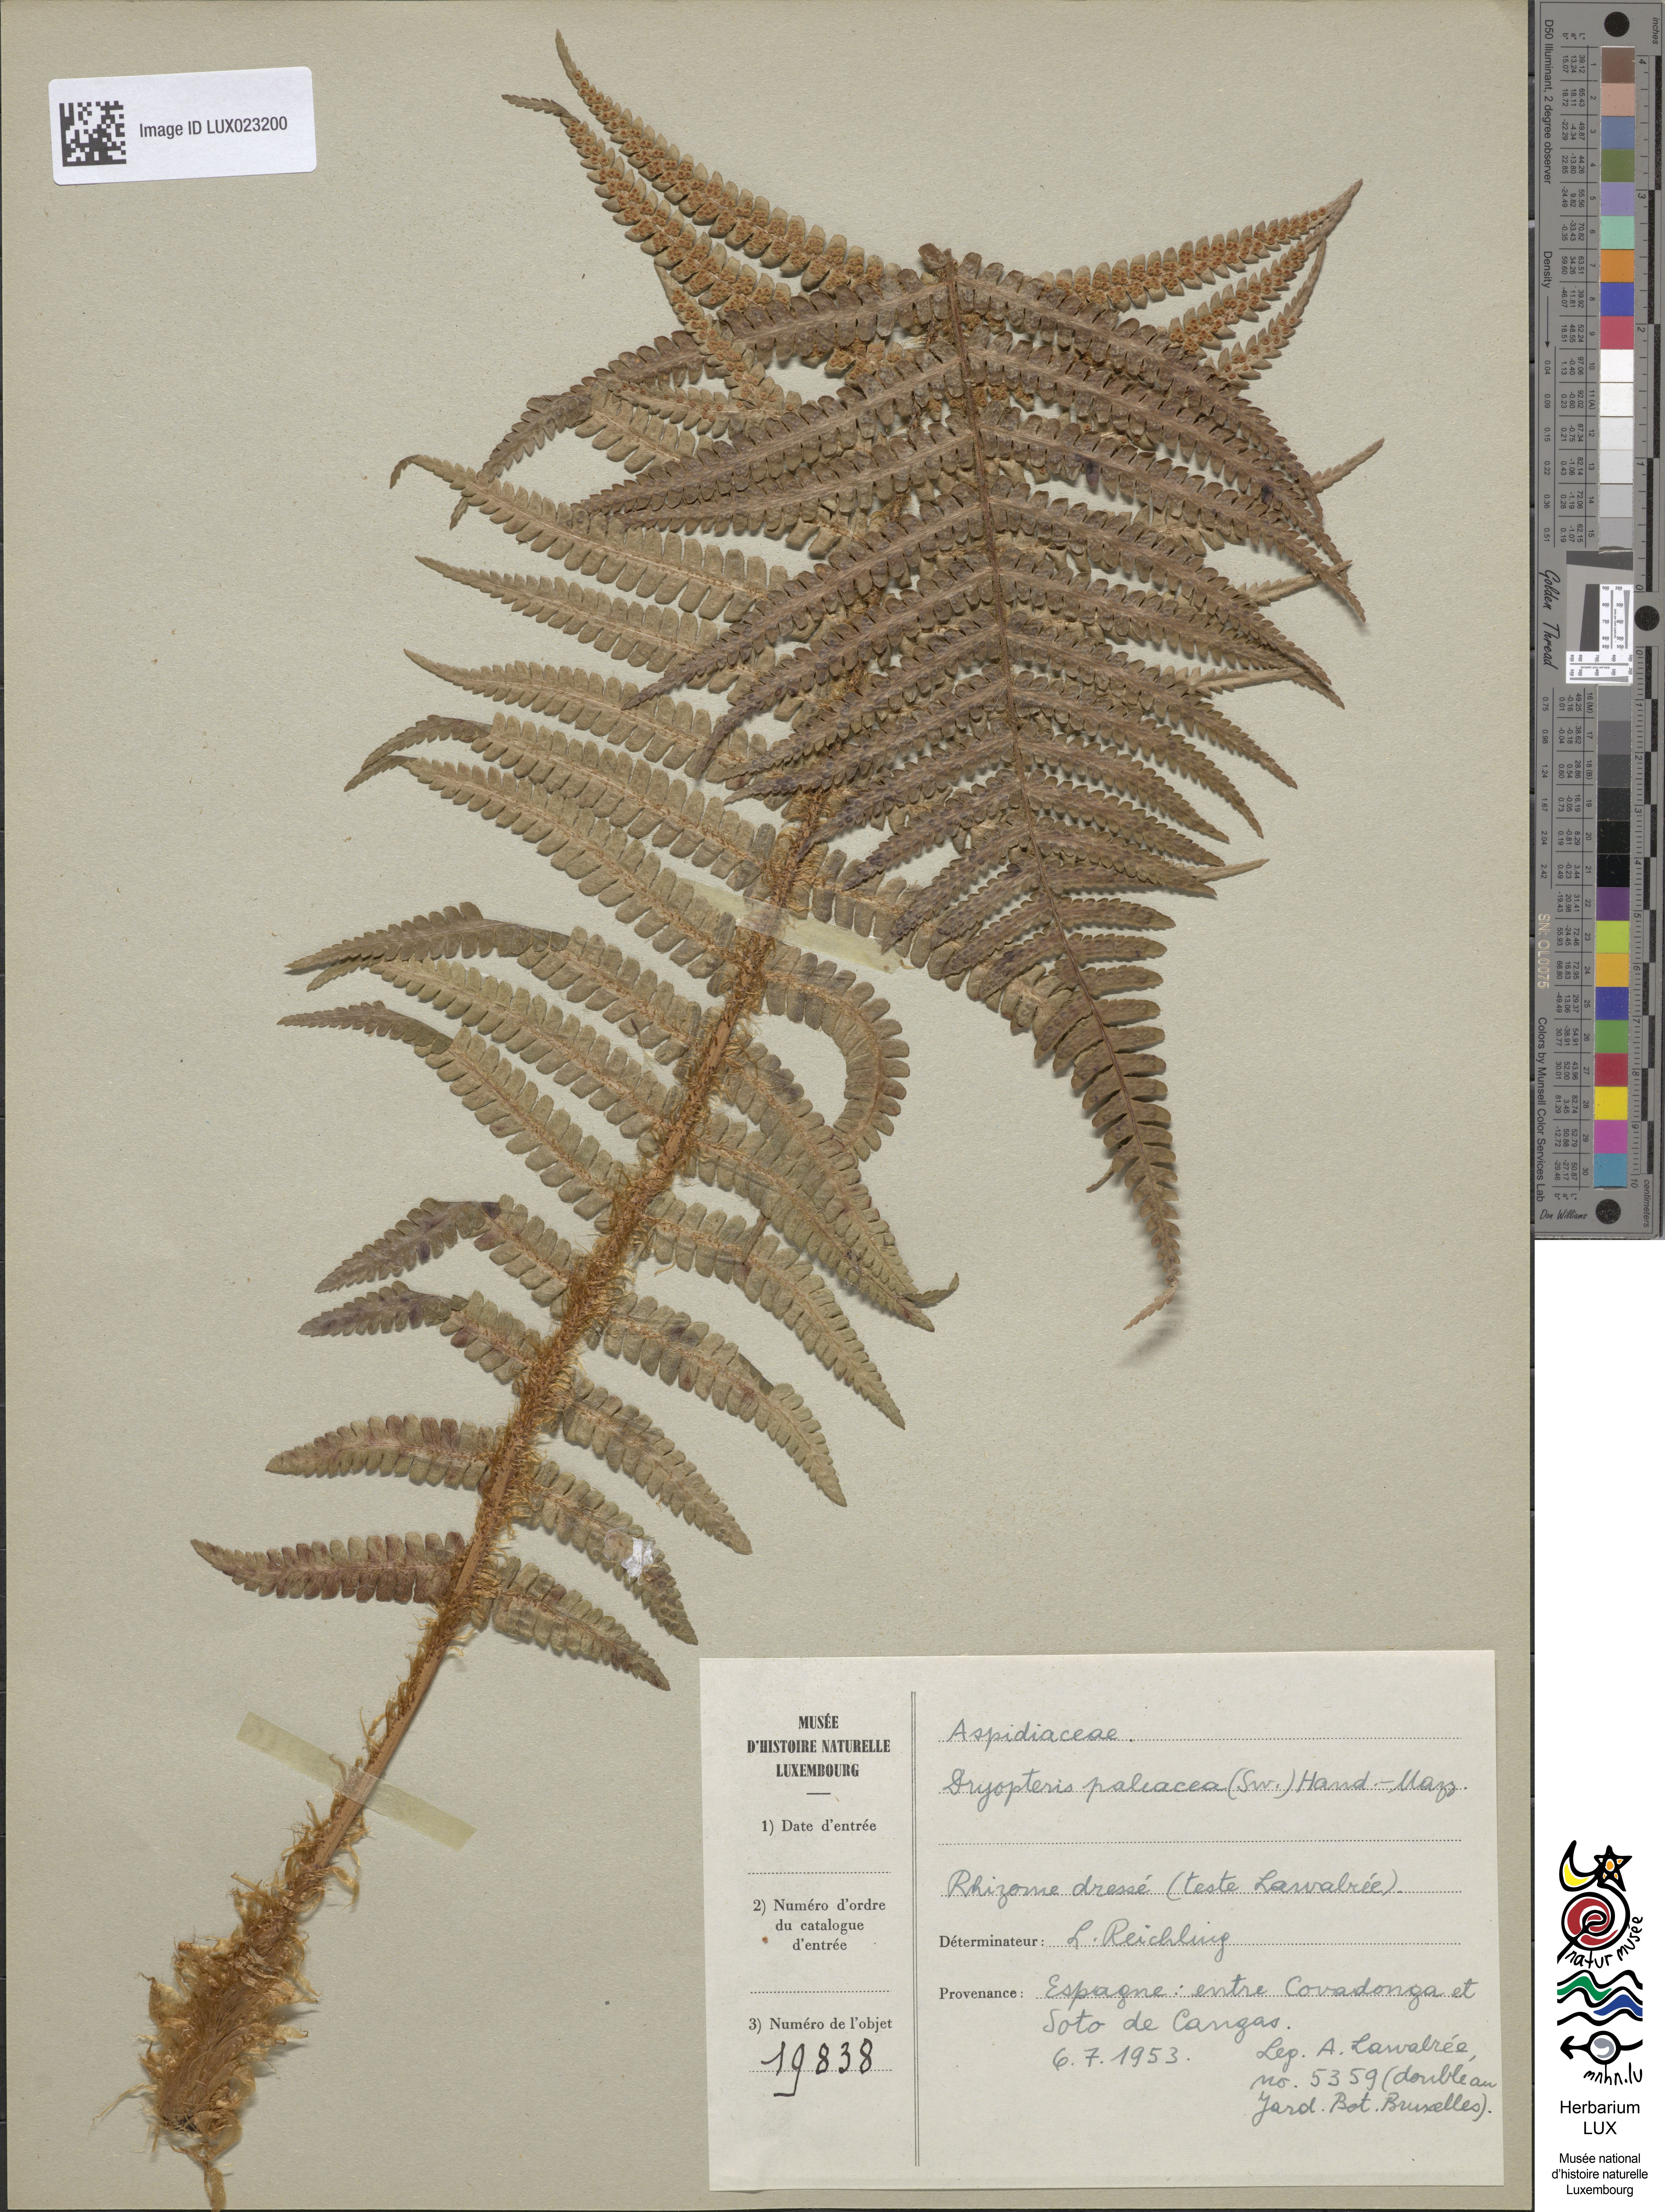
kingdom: Plantae
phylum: Tracheophyta
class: Polypodiopsida
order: Polypodiales
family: Dryopteridaceae
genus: Dryopteris
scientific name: Dryopteris paleacea
